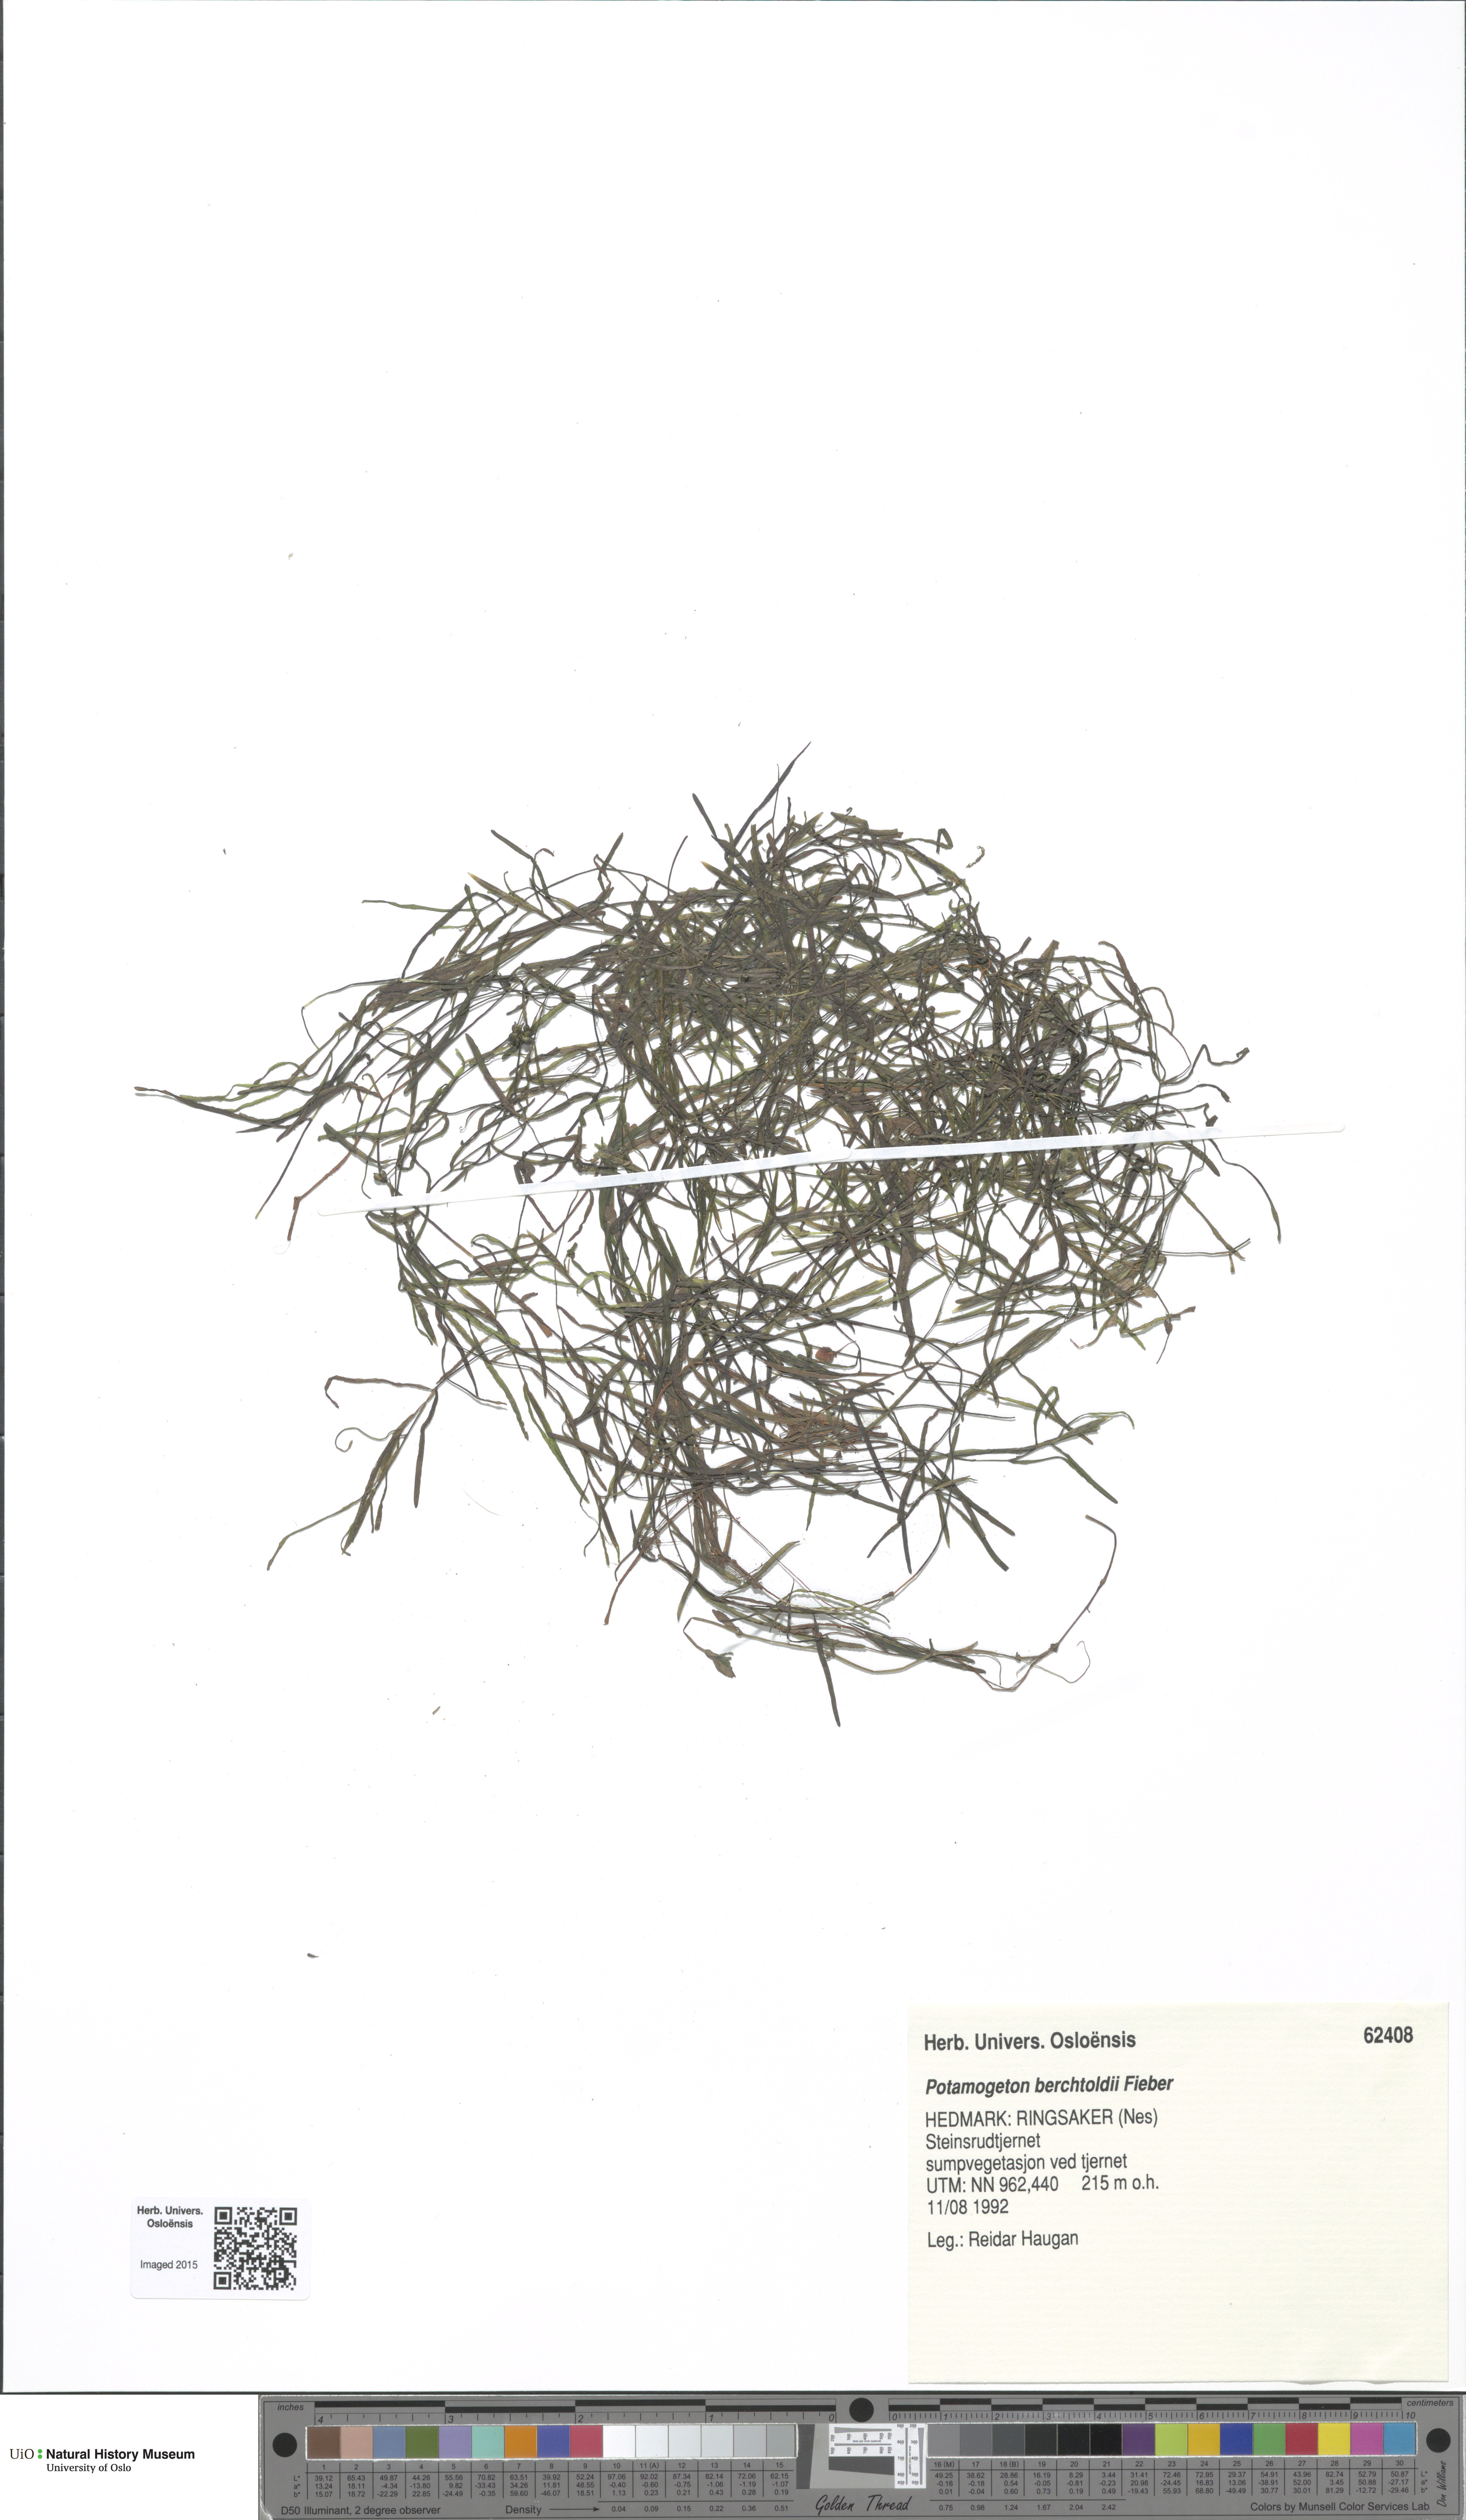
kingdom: Plantae
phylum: Tracheophyta
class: Liliopsida
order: Alismatales
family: Potamogetonaceae
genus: Potamogeton
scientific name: Potamogeton berchtoldii
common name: Small pondweed
